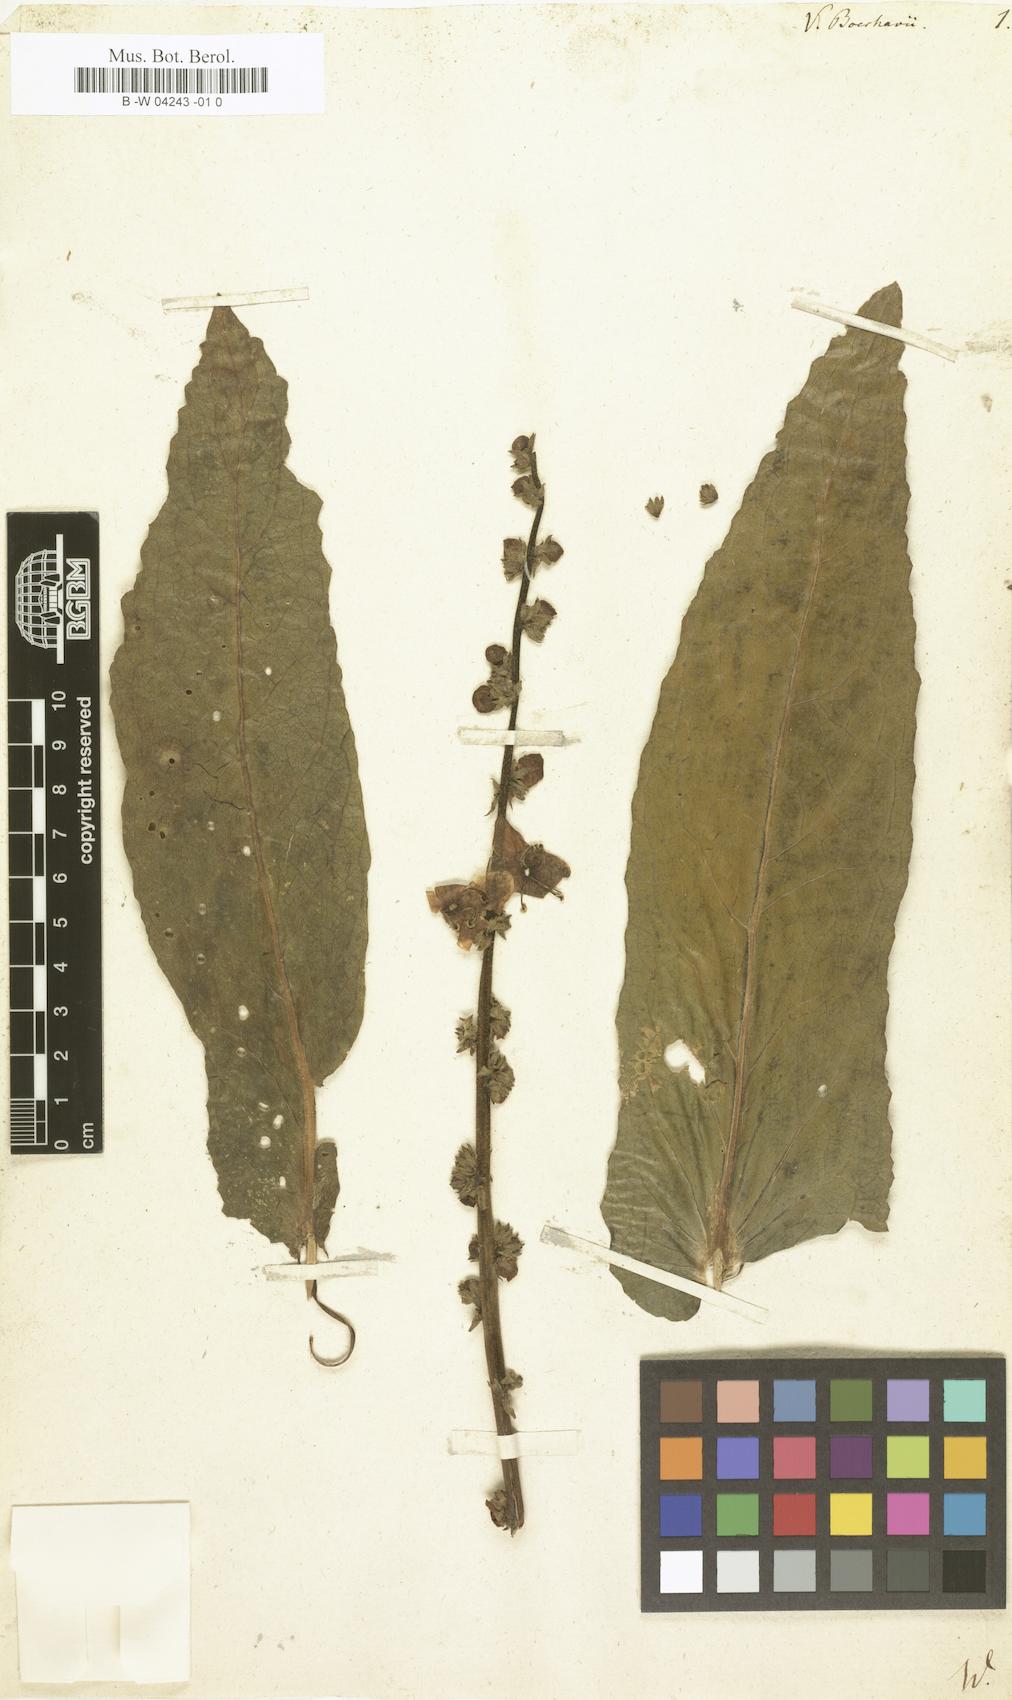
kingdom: Plantae
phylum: Tracheophyta
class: Magnoliopsida
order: Lamiales
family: Scrophulariaceae
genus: Verbascum
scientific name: Verbascum boerhavii
